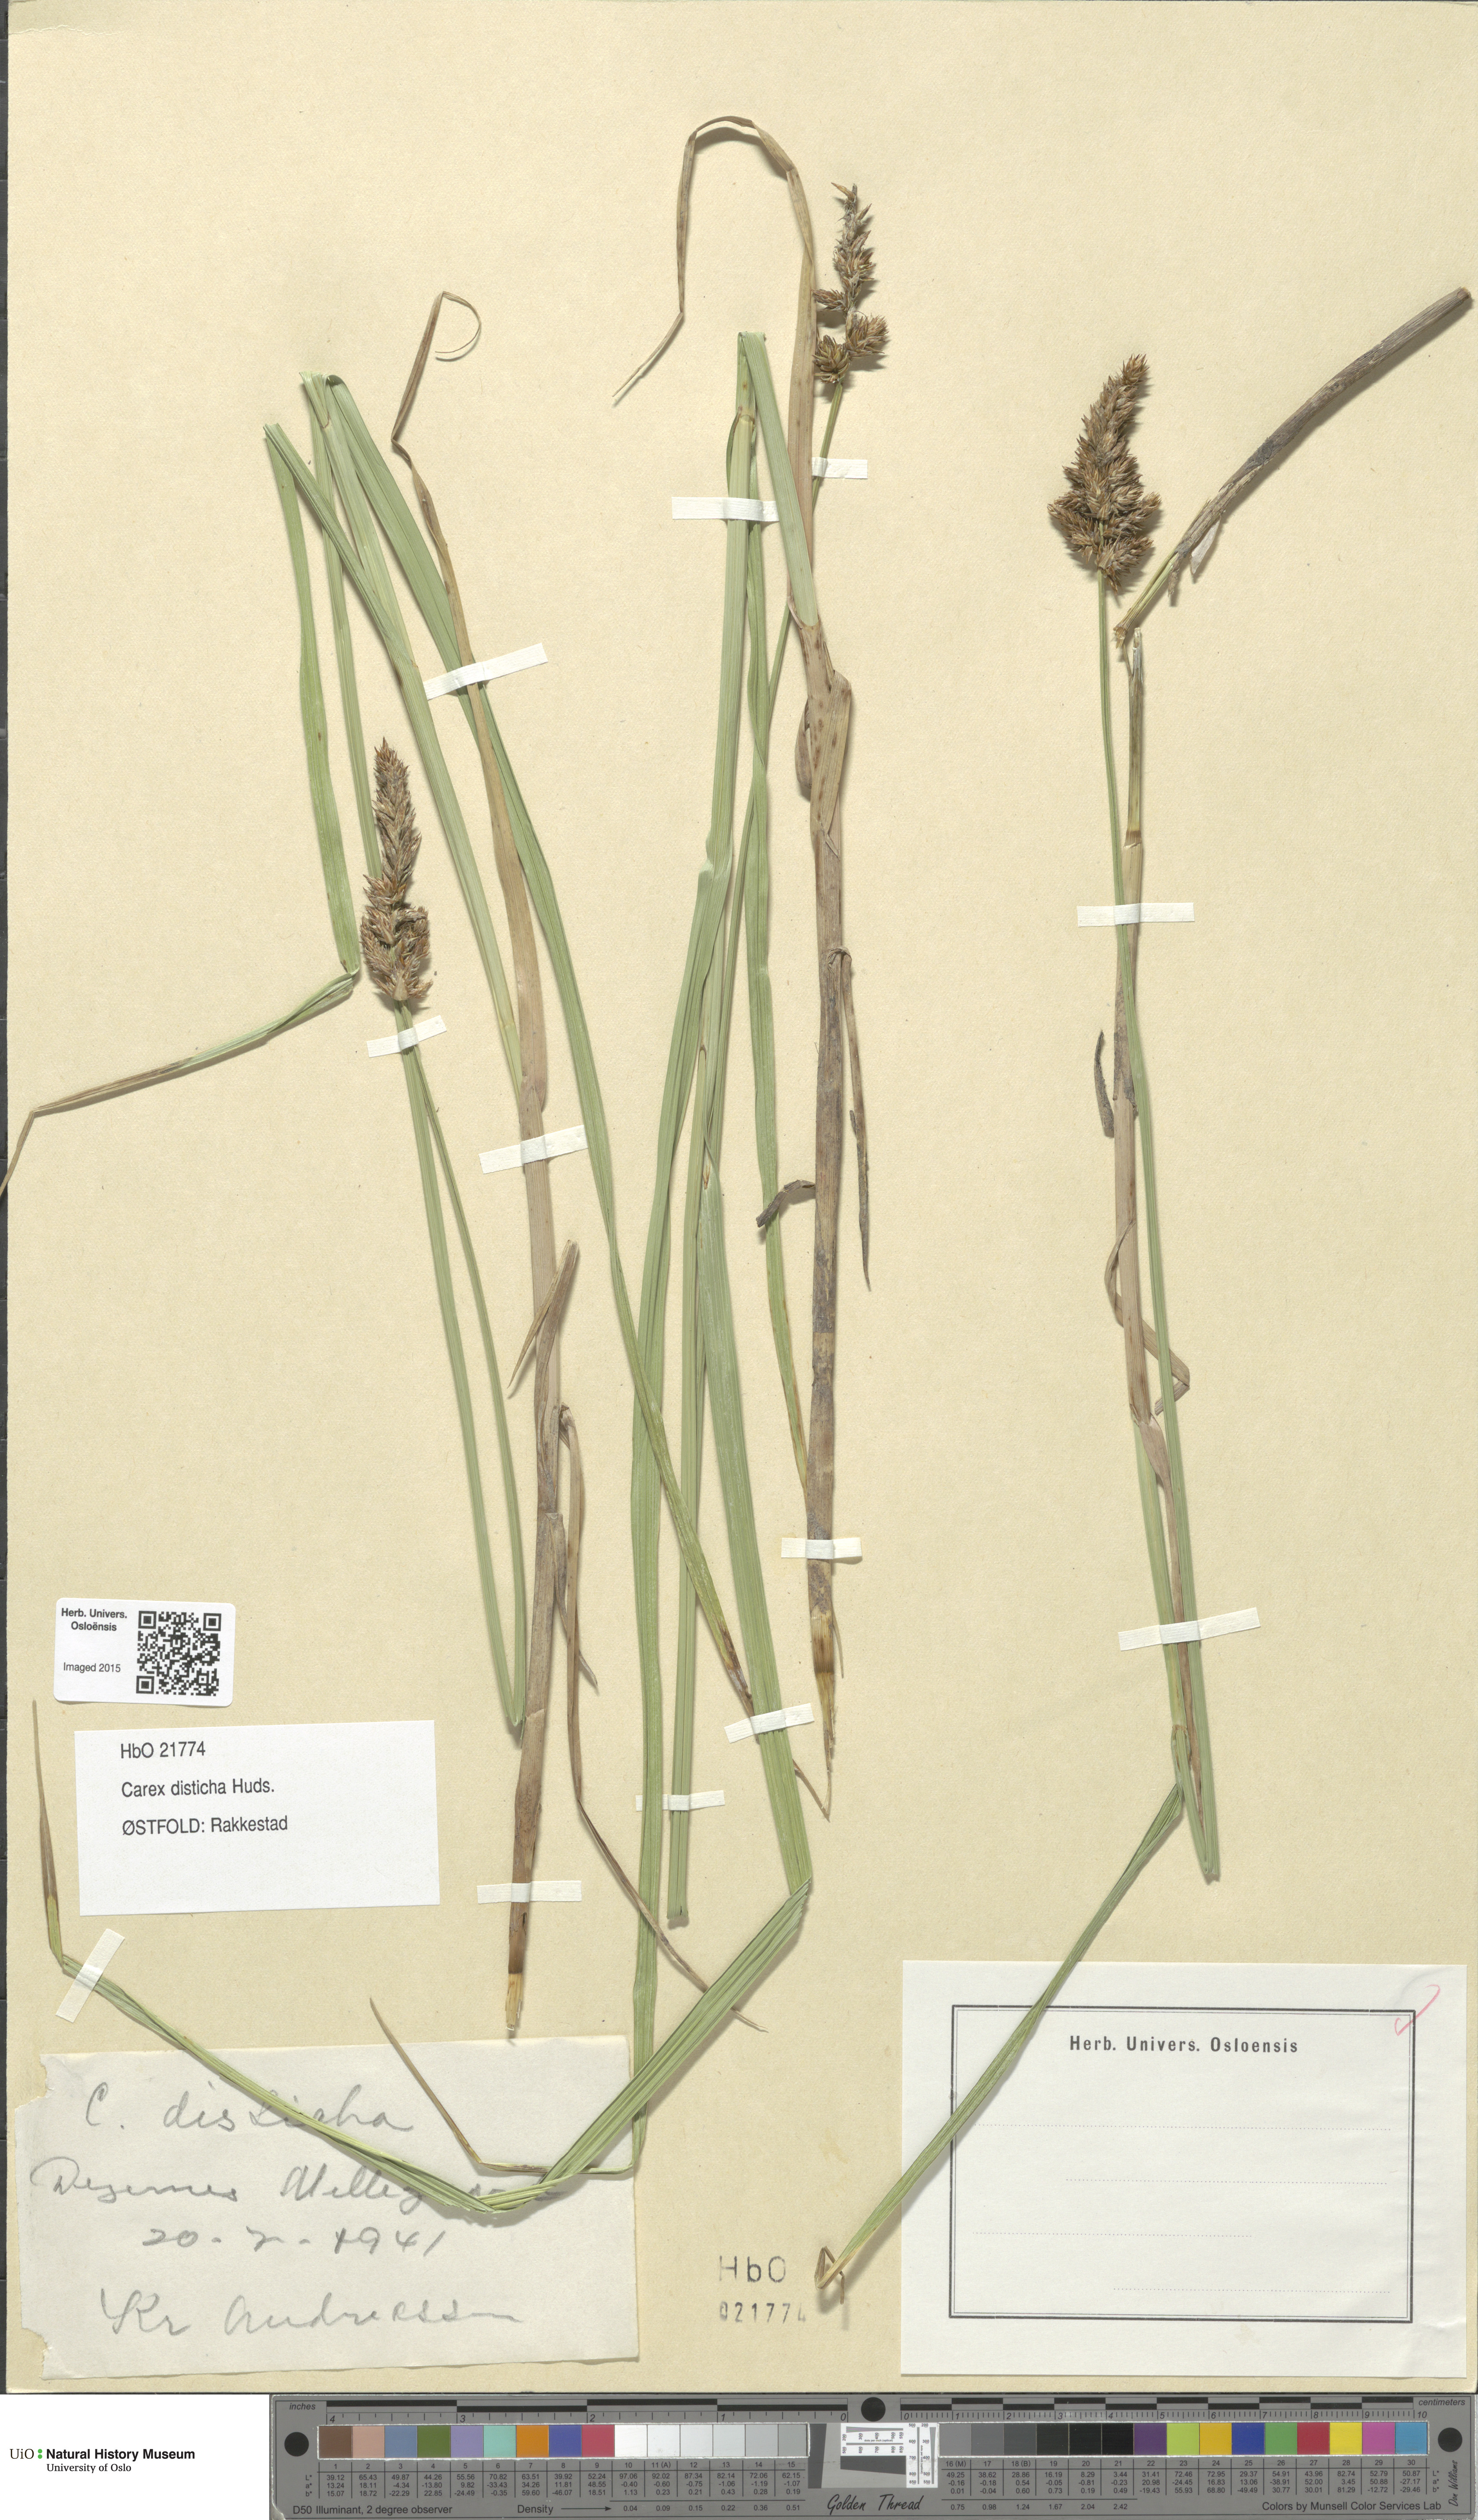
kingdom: Plantae
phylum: Tracheophyta
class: Liliopsida
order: Poales
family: Cyperaceae
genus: Carex
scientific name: Carex disticha
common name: Brown sedge
